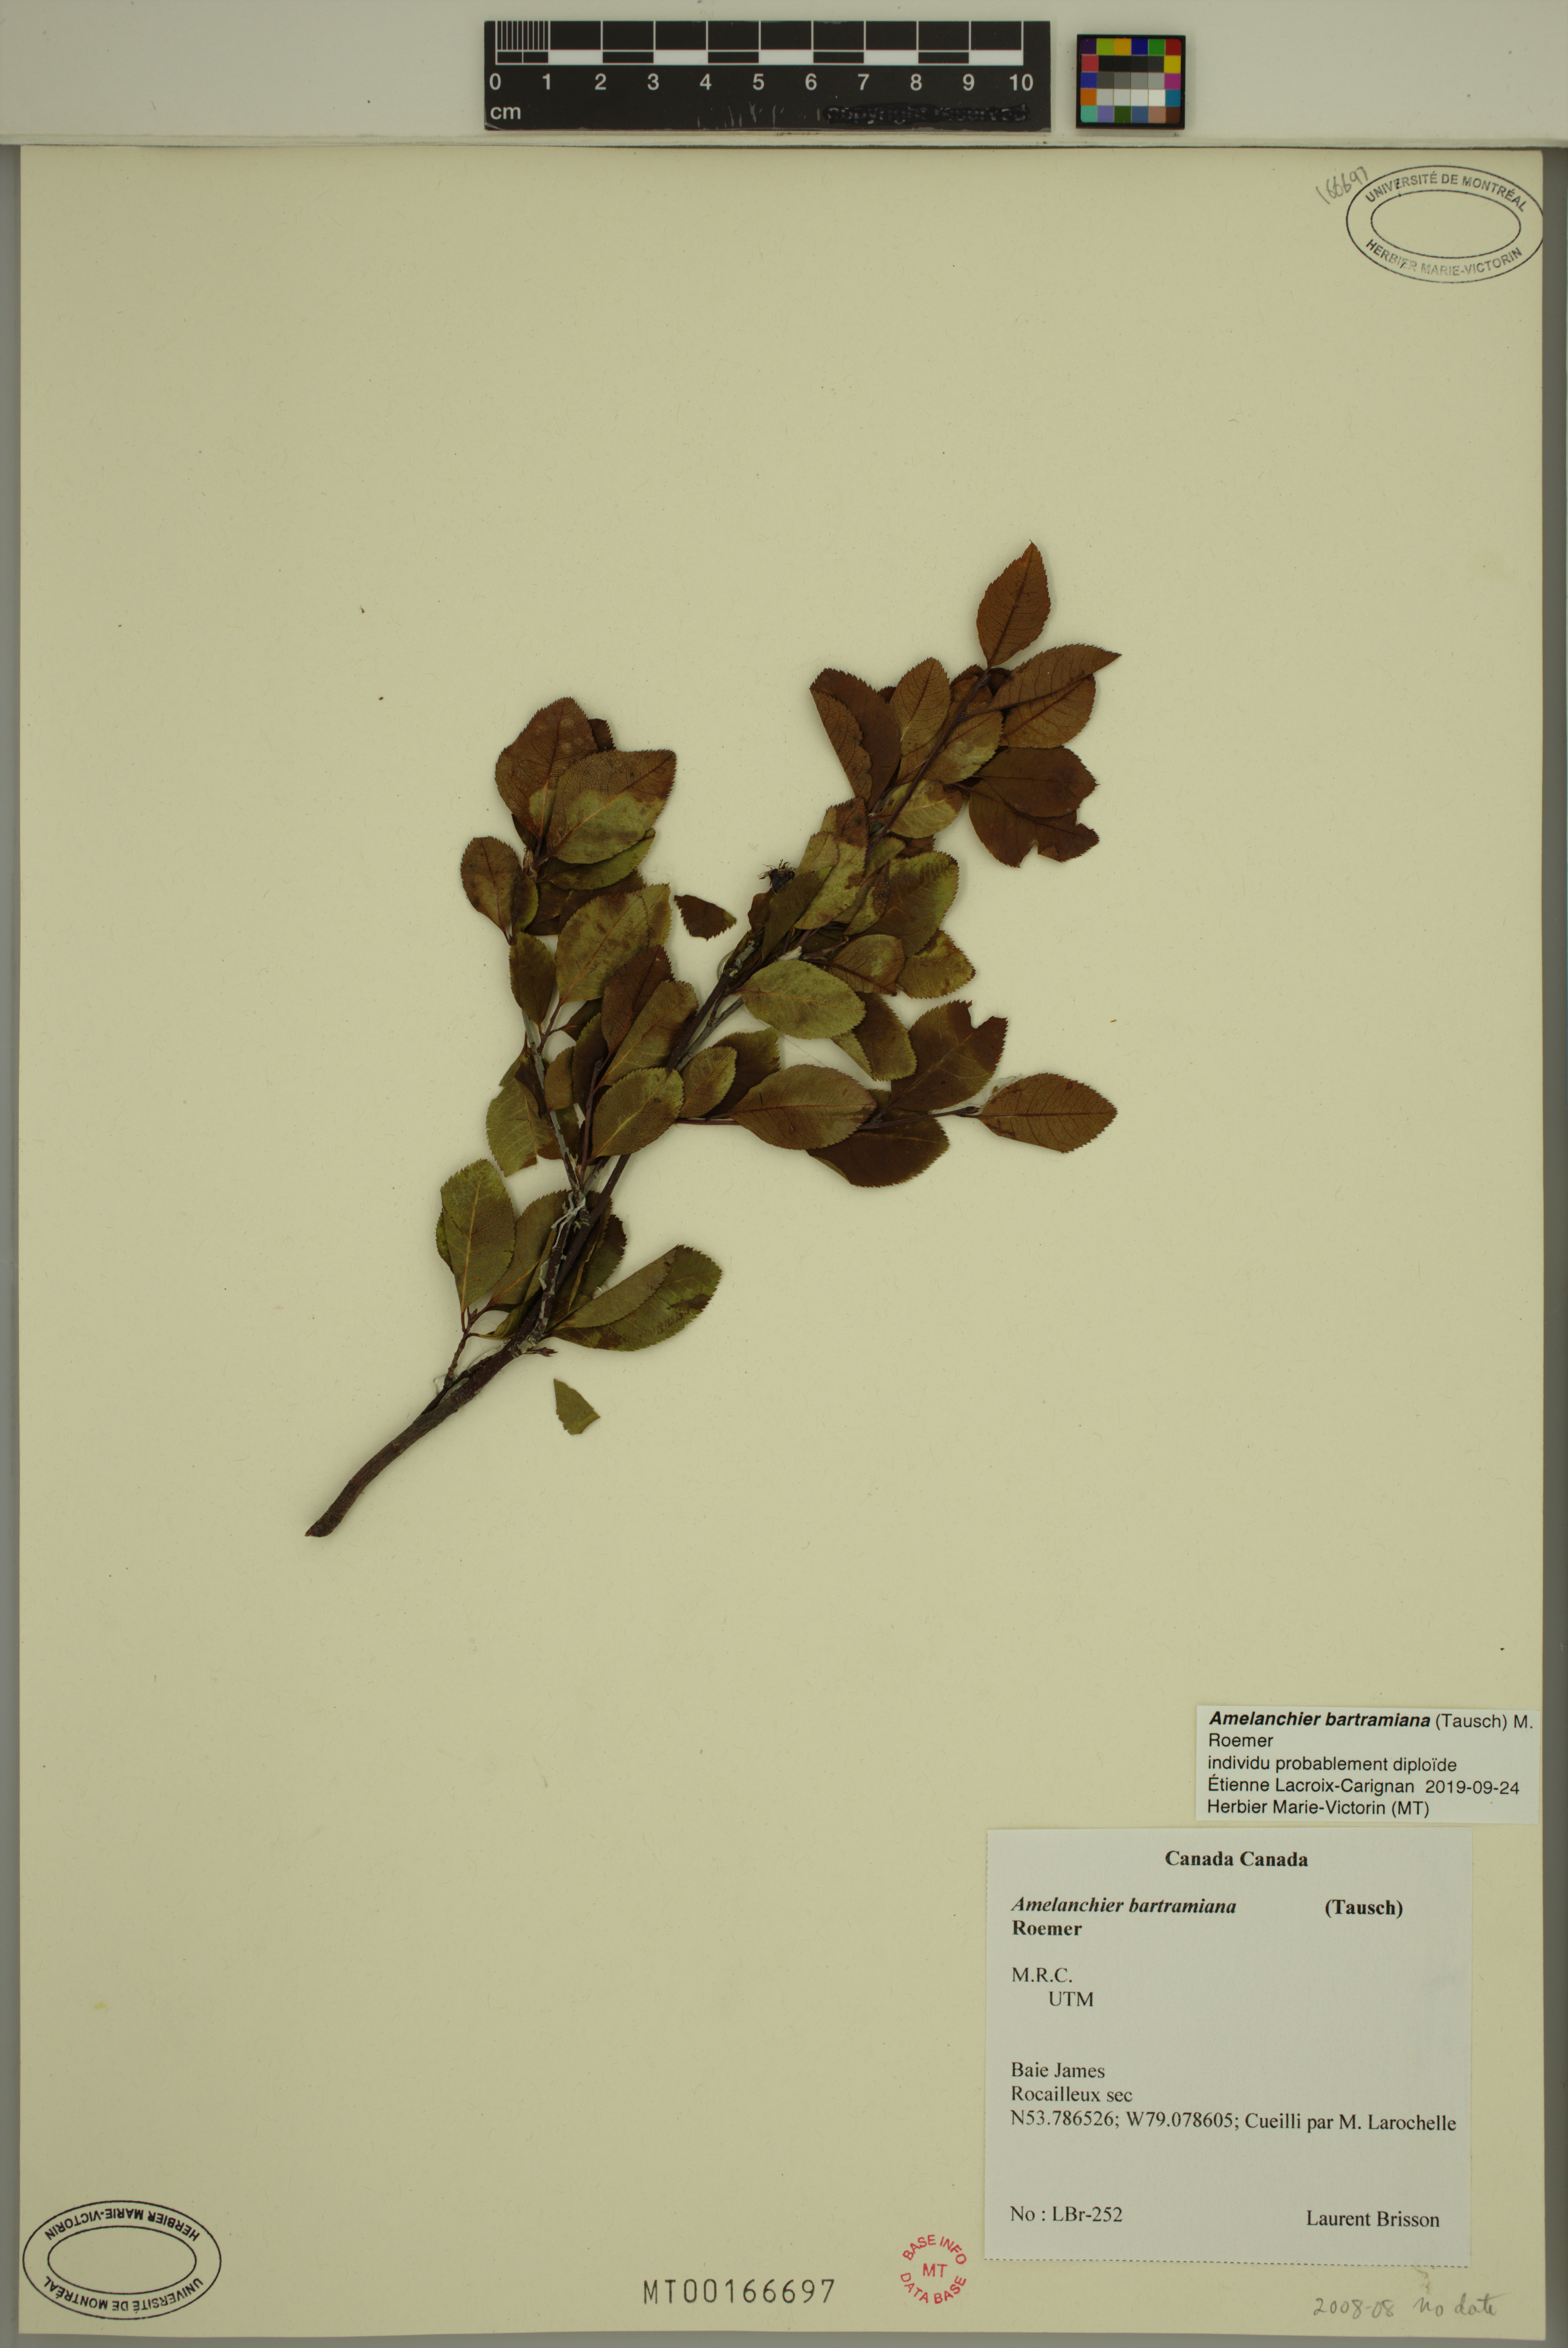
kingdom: Plantae
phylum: Tracheophyta
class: Magnoliopsida
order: Rosales
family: Rosaceae
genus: Amelanchier
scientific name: Amelanchier bartramiana
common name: Mountain serviceberry
